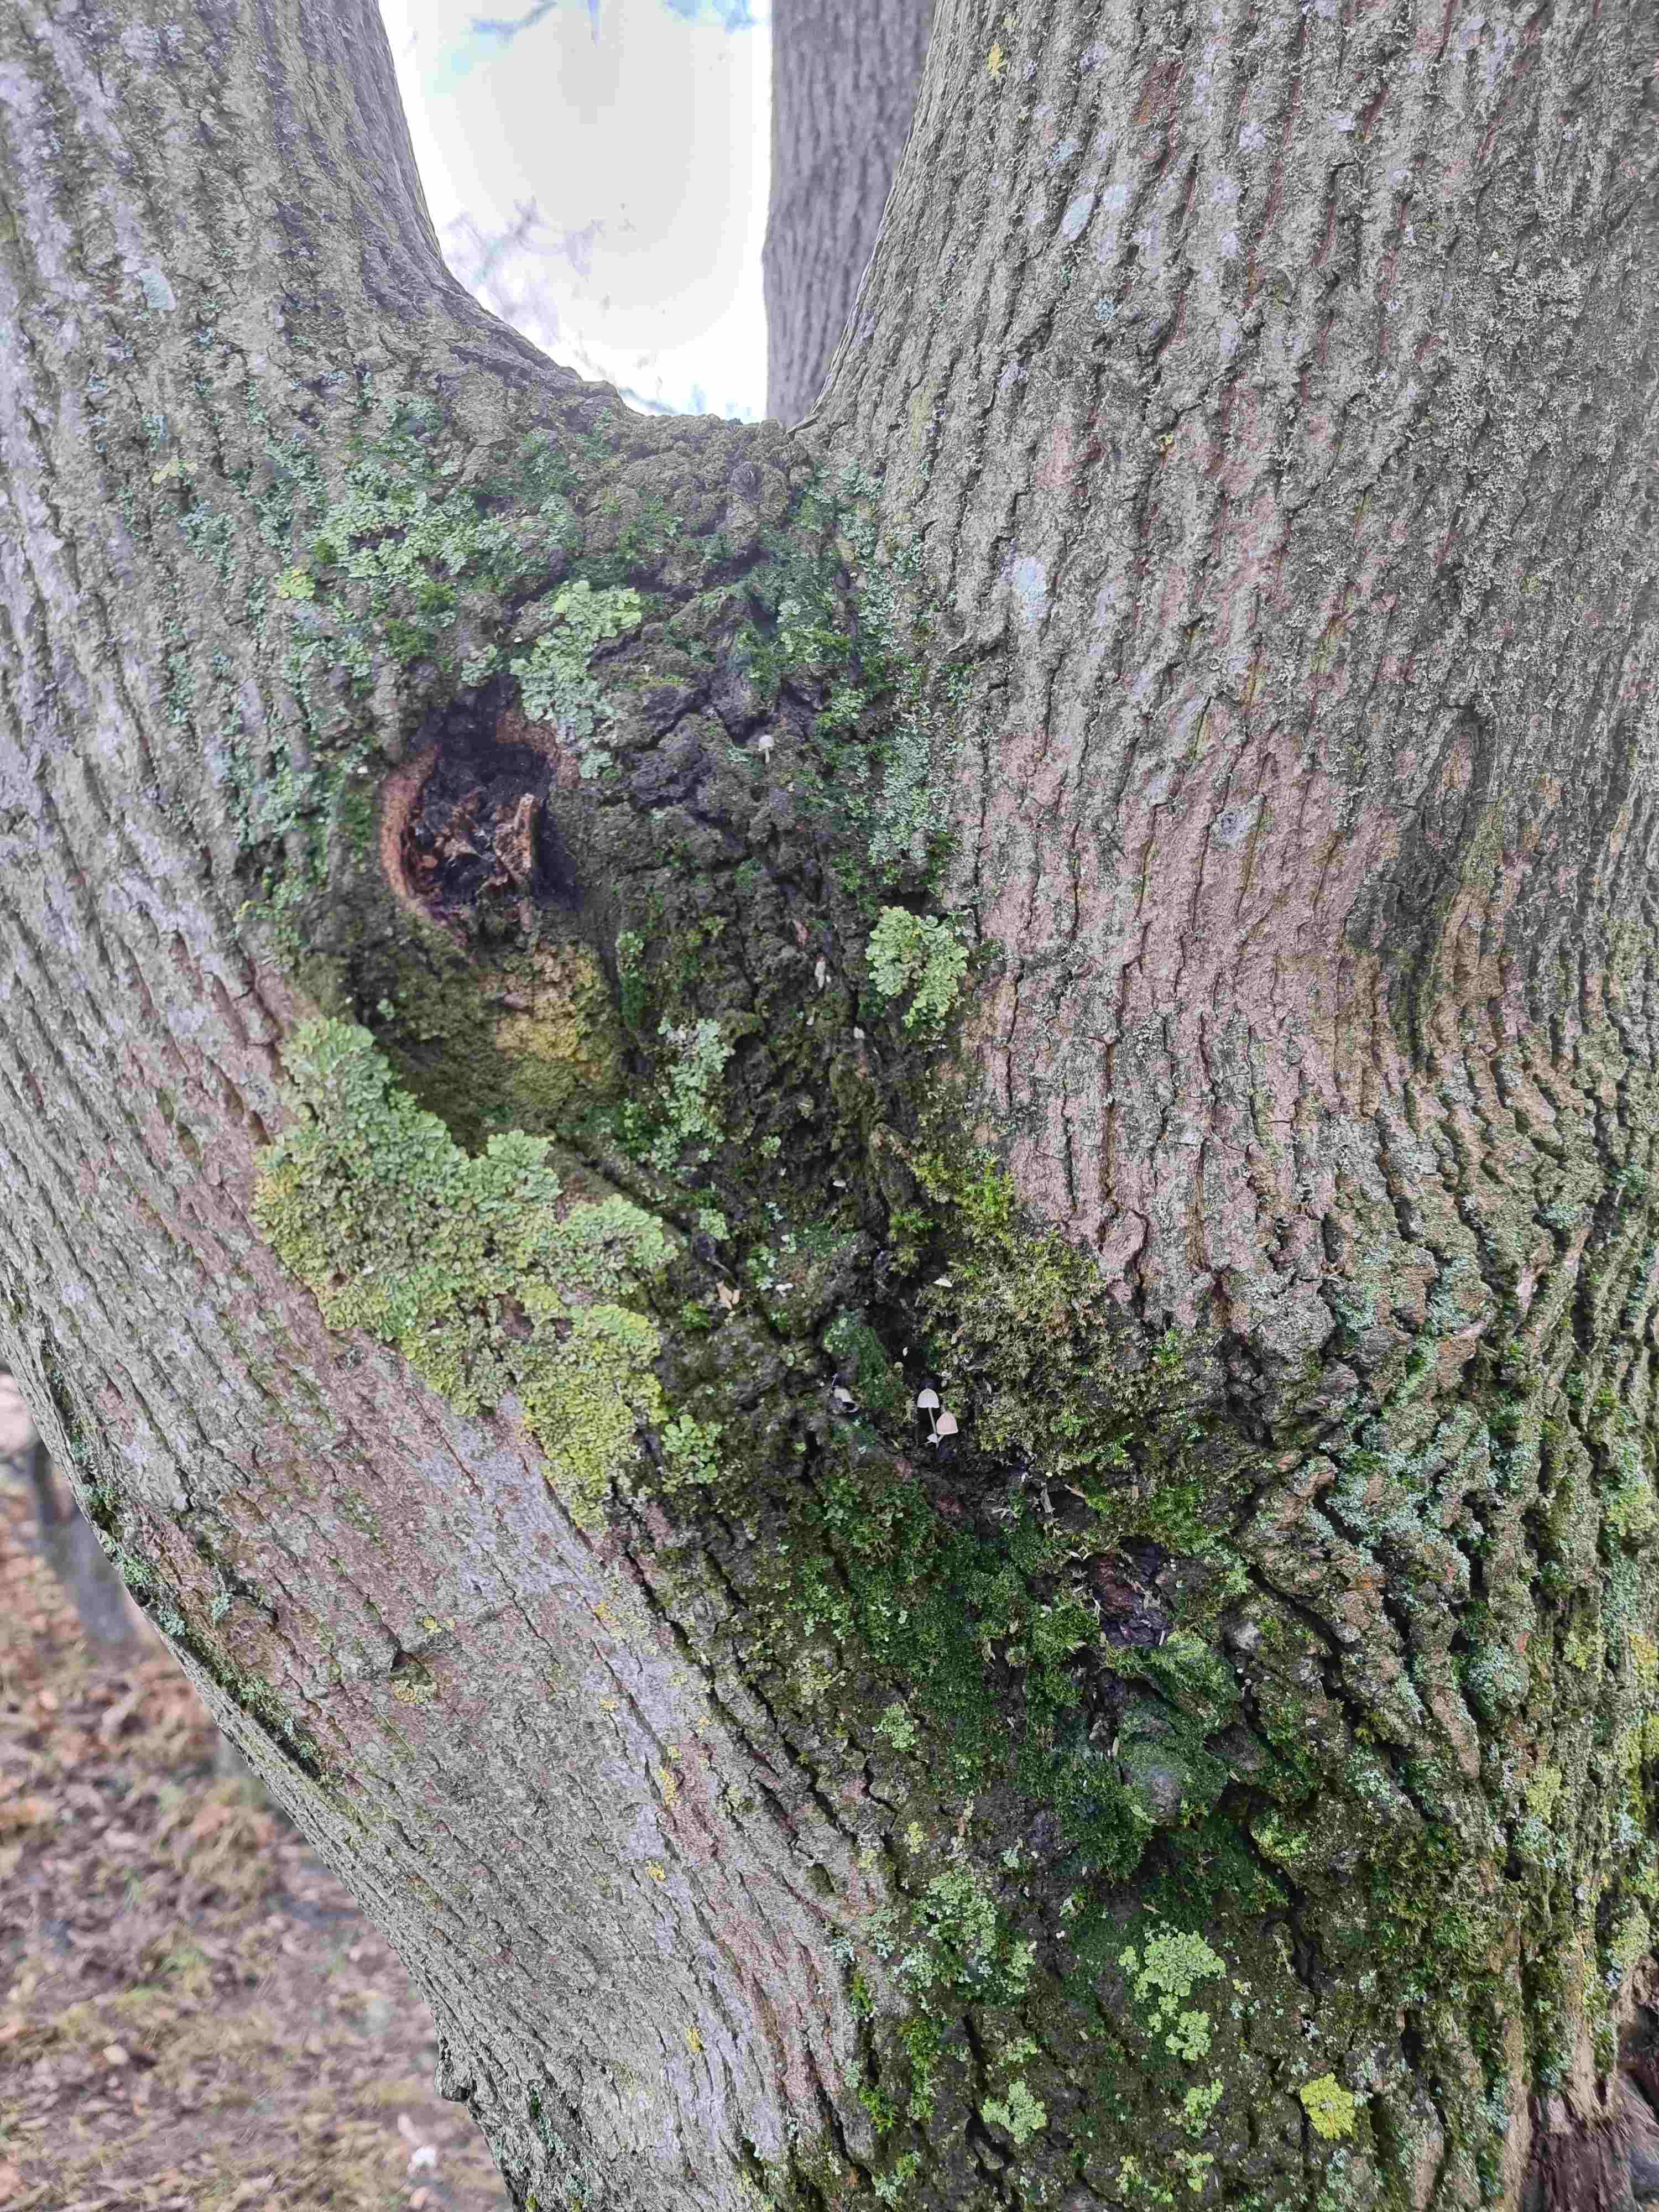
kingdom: Fungi
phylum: Basidiomycota
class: Agaricomycetes
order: Agaricales
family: Porotheleaceae
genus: Phloeomana
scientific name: Phloeomana hiemalis
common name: sen huesvamp
